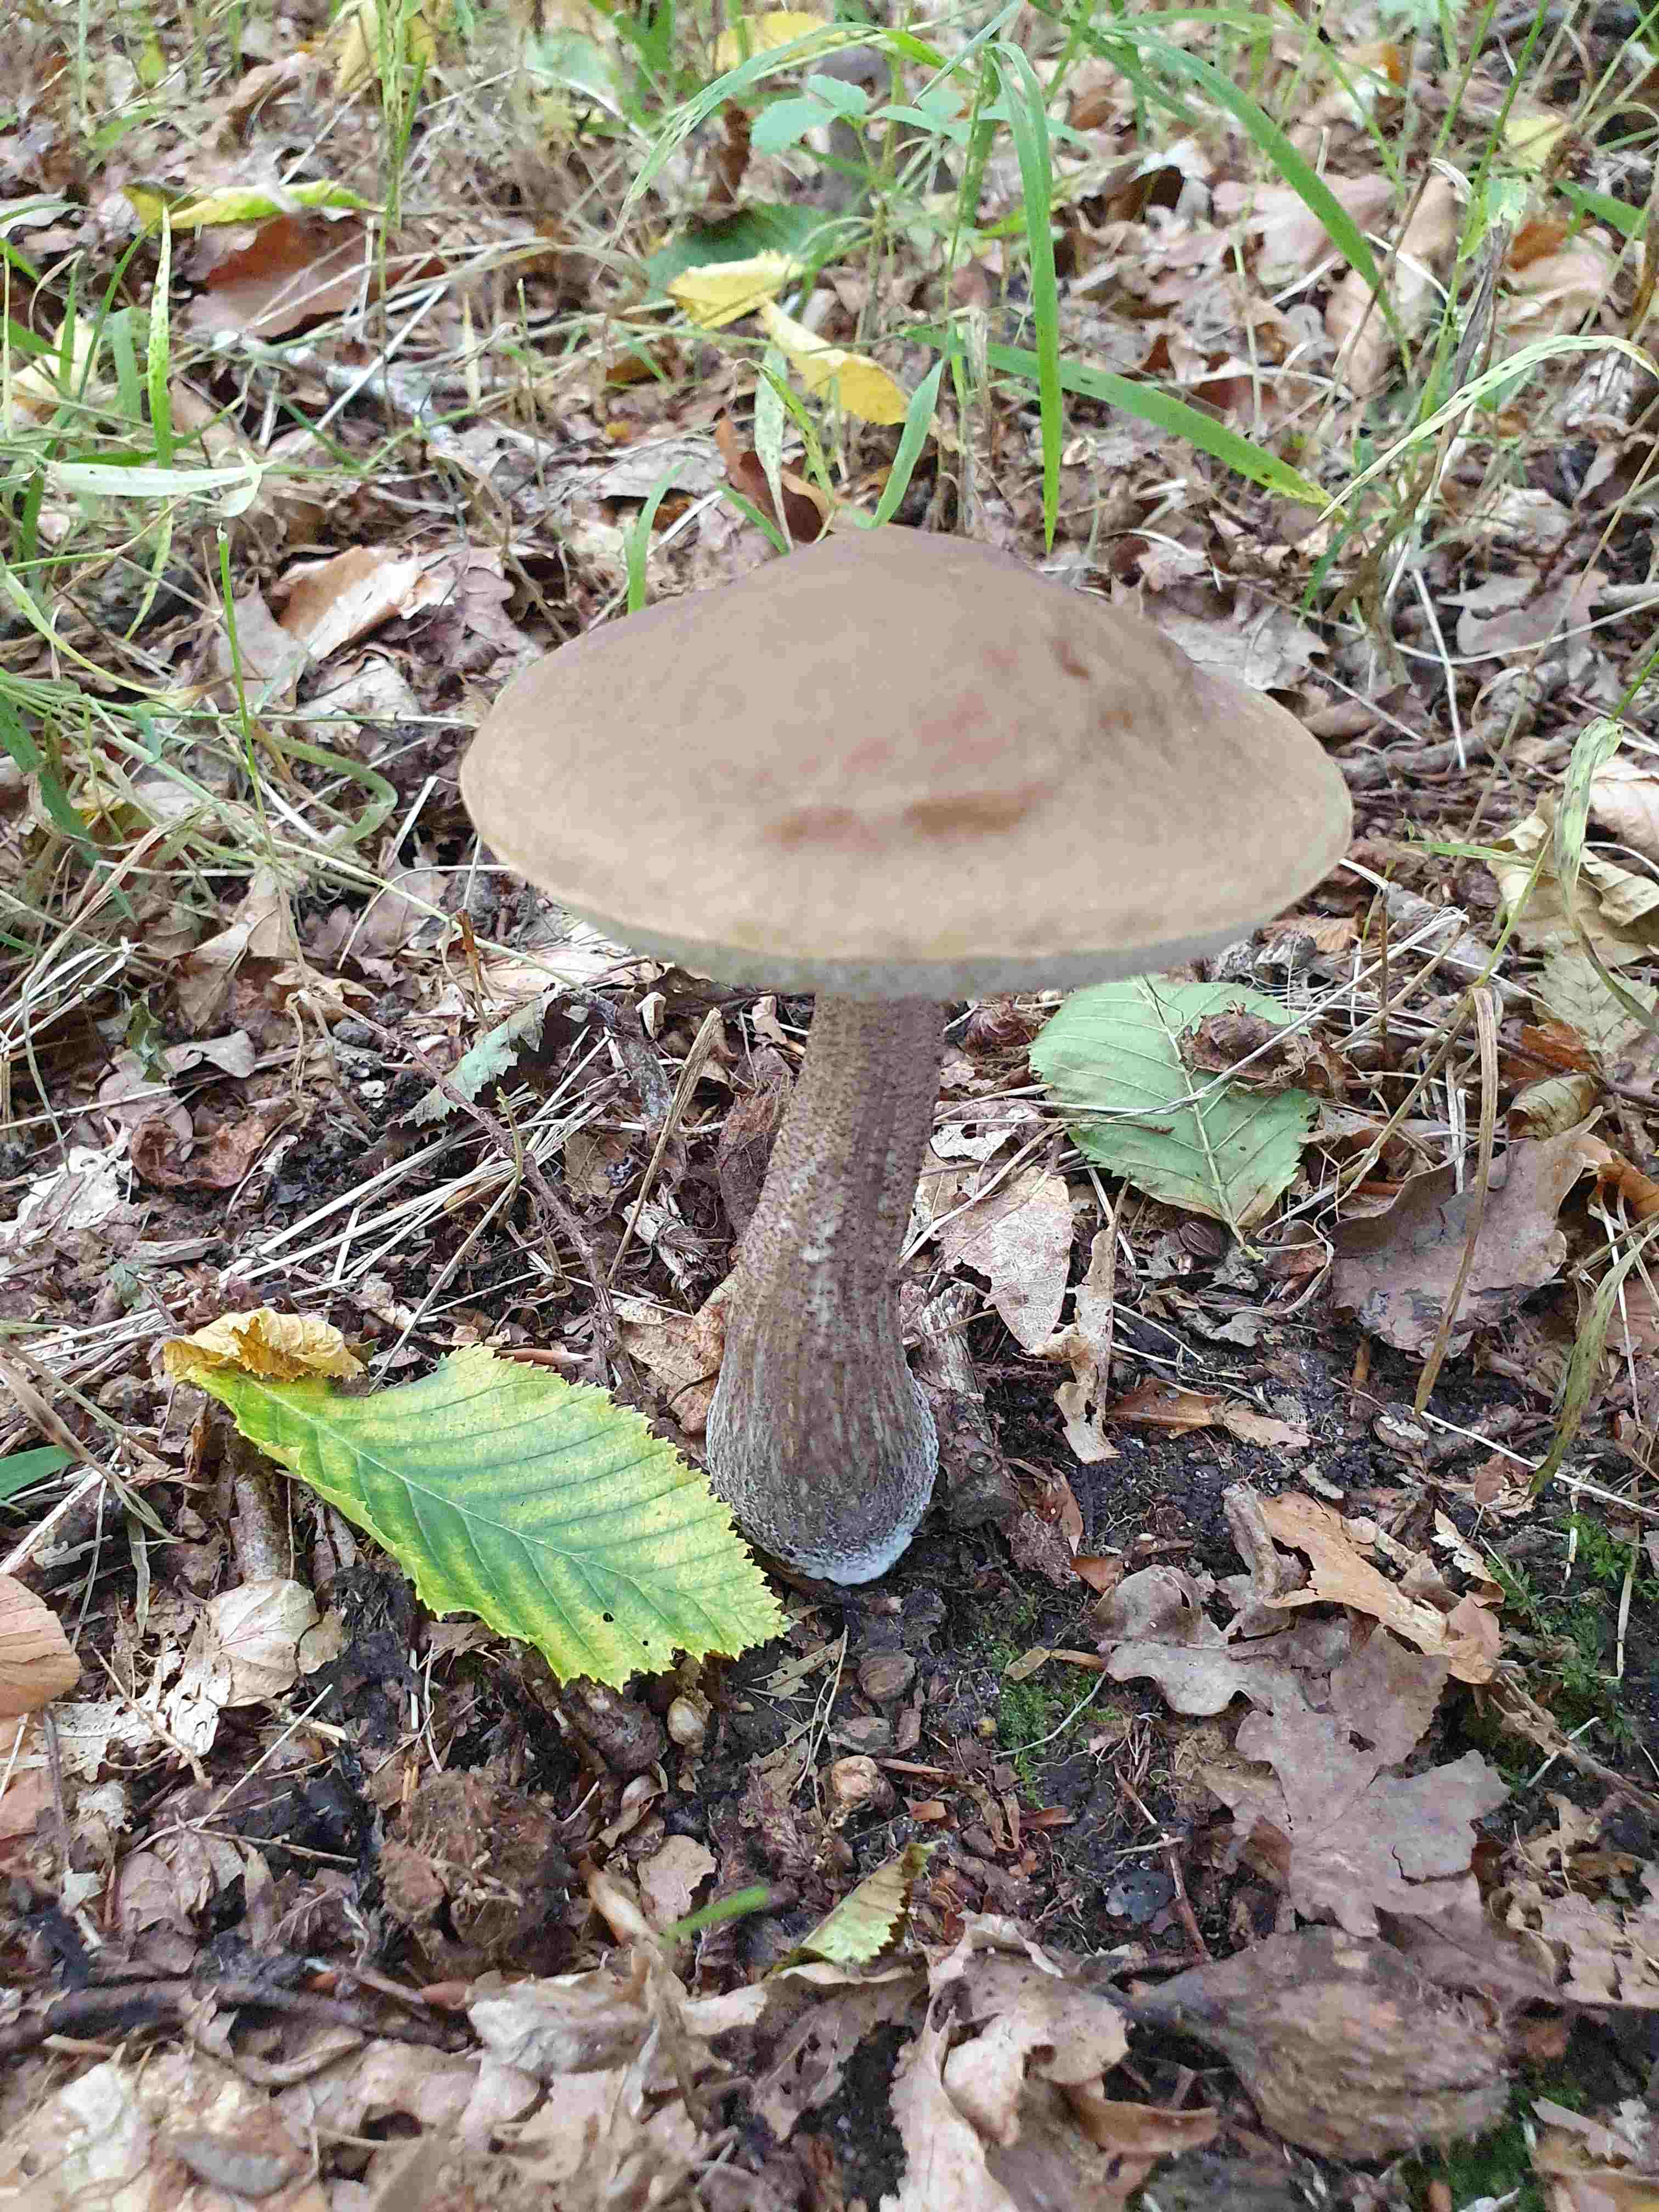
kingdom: Fungi
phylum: Basidiomycota
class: Agaricomycetes
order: Boletales
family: Boletaceae
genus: Leccinellum
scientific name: Leccinellum pseudoscabrum
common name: avnbøg-skælrørhat
